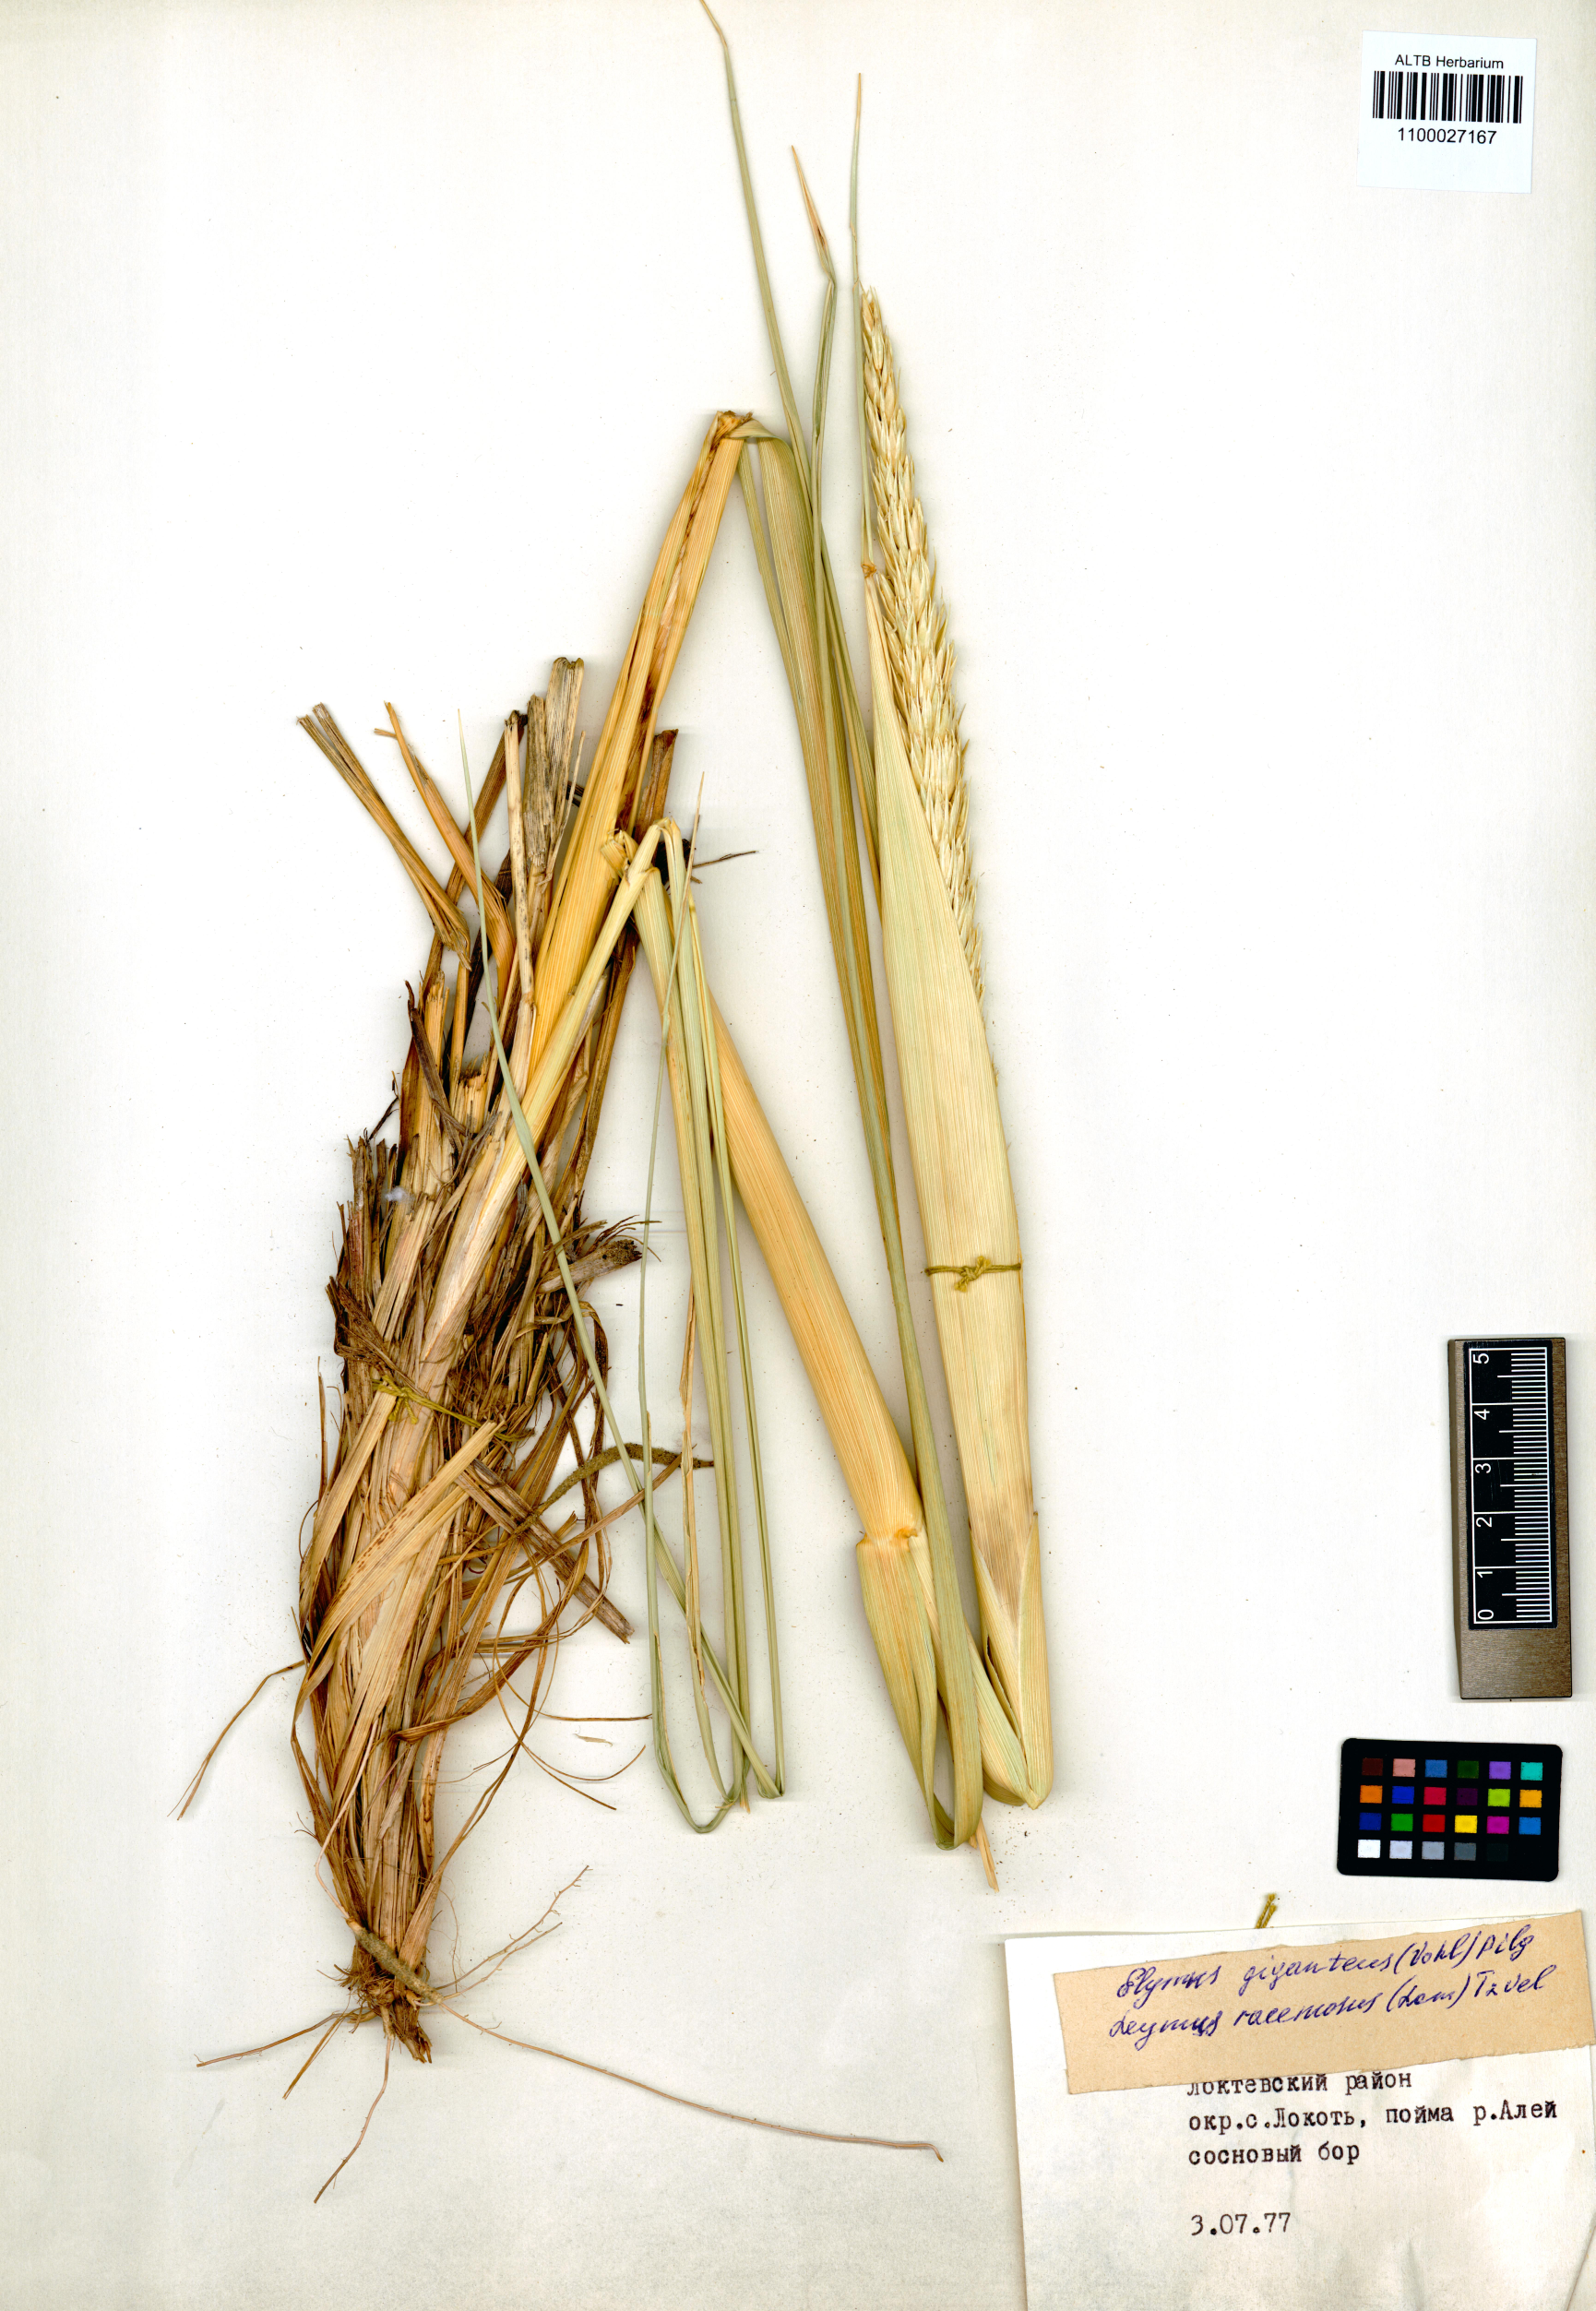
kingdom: Plantae
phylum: Tracheophyta
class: Liliopsida
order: Poales
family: Poaceae
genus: Leymus
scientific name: Leymus racemosus
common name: Mammoth wildrye
